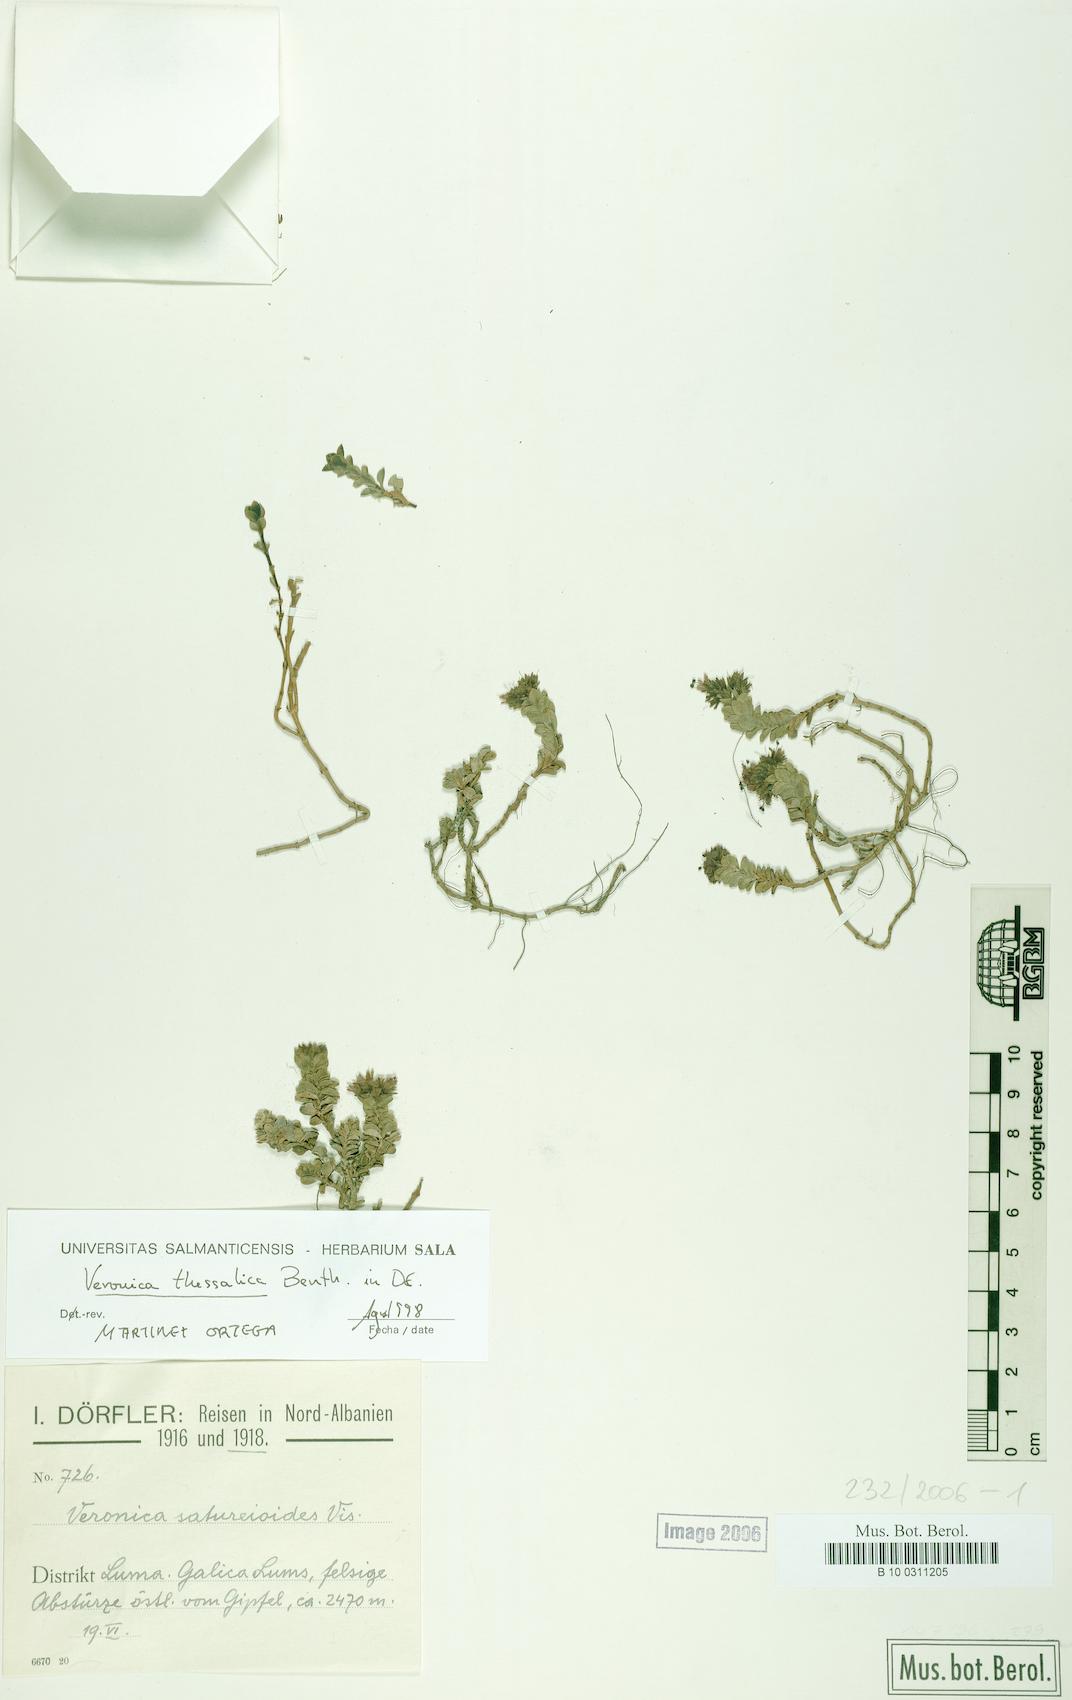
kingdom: Plantae
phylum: Tracheophyta
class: Magnoliopsida
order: Lamiales
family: Plantaginaceae
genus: Veronica
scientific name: Veronica thessalica
